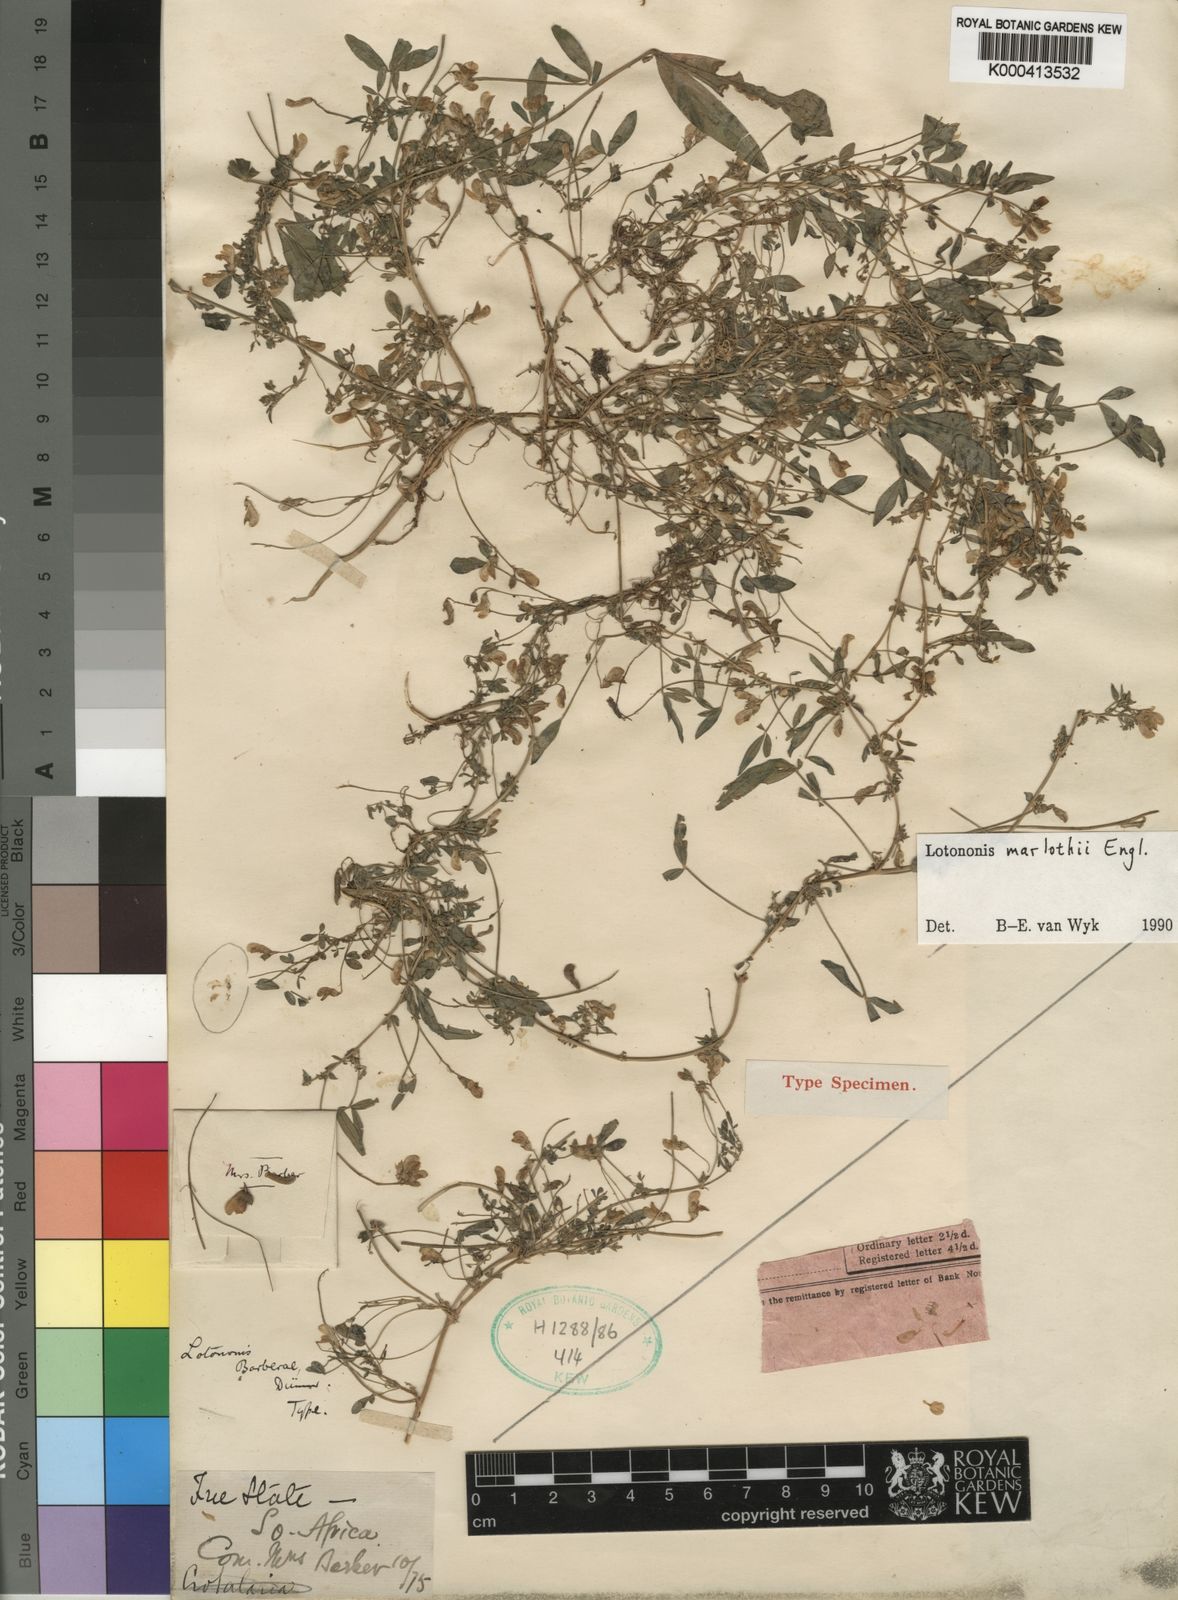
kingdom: Plantae
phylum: Tracheophyta
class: Magnoliopsida
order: Fabales
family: Fabaceae
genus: Listia
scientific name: Listia marlothii
